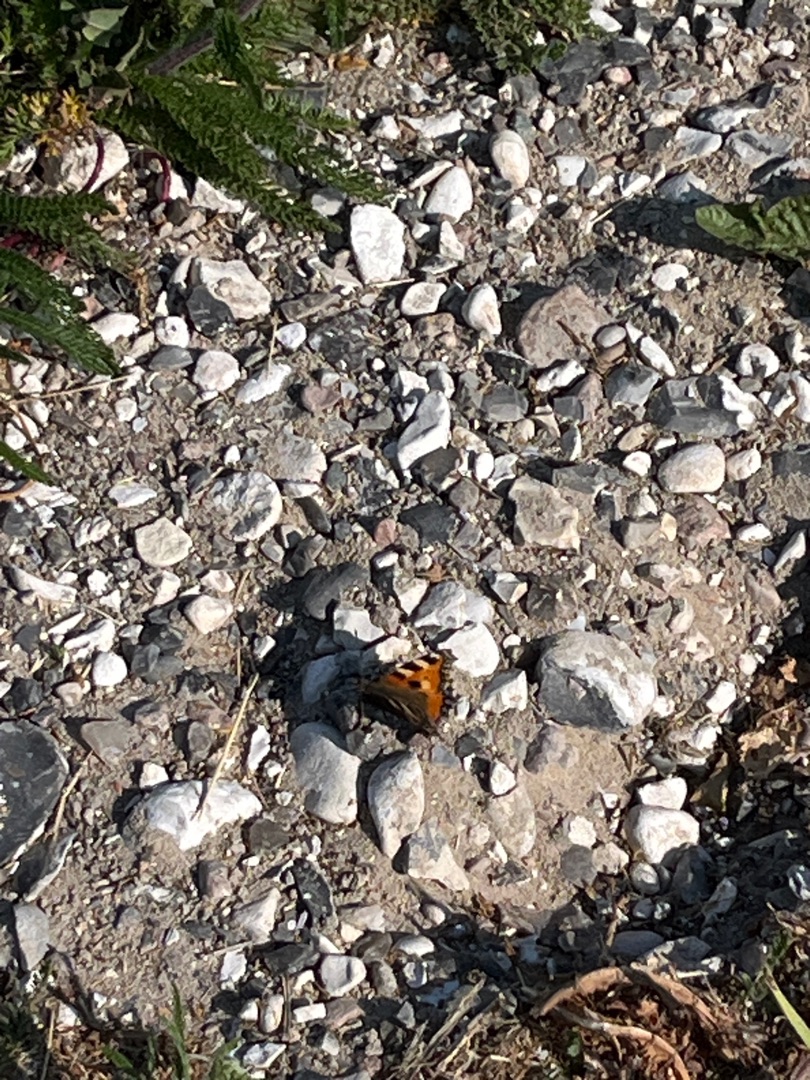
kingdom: Animalia
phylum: Arthropoda
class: Insecta
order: Lepidoptera
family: Nymphalidae
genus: Aglais
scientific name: Aglais urticae
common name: Nældens takvinge
